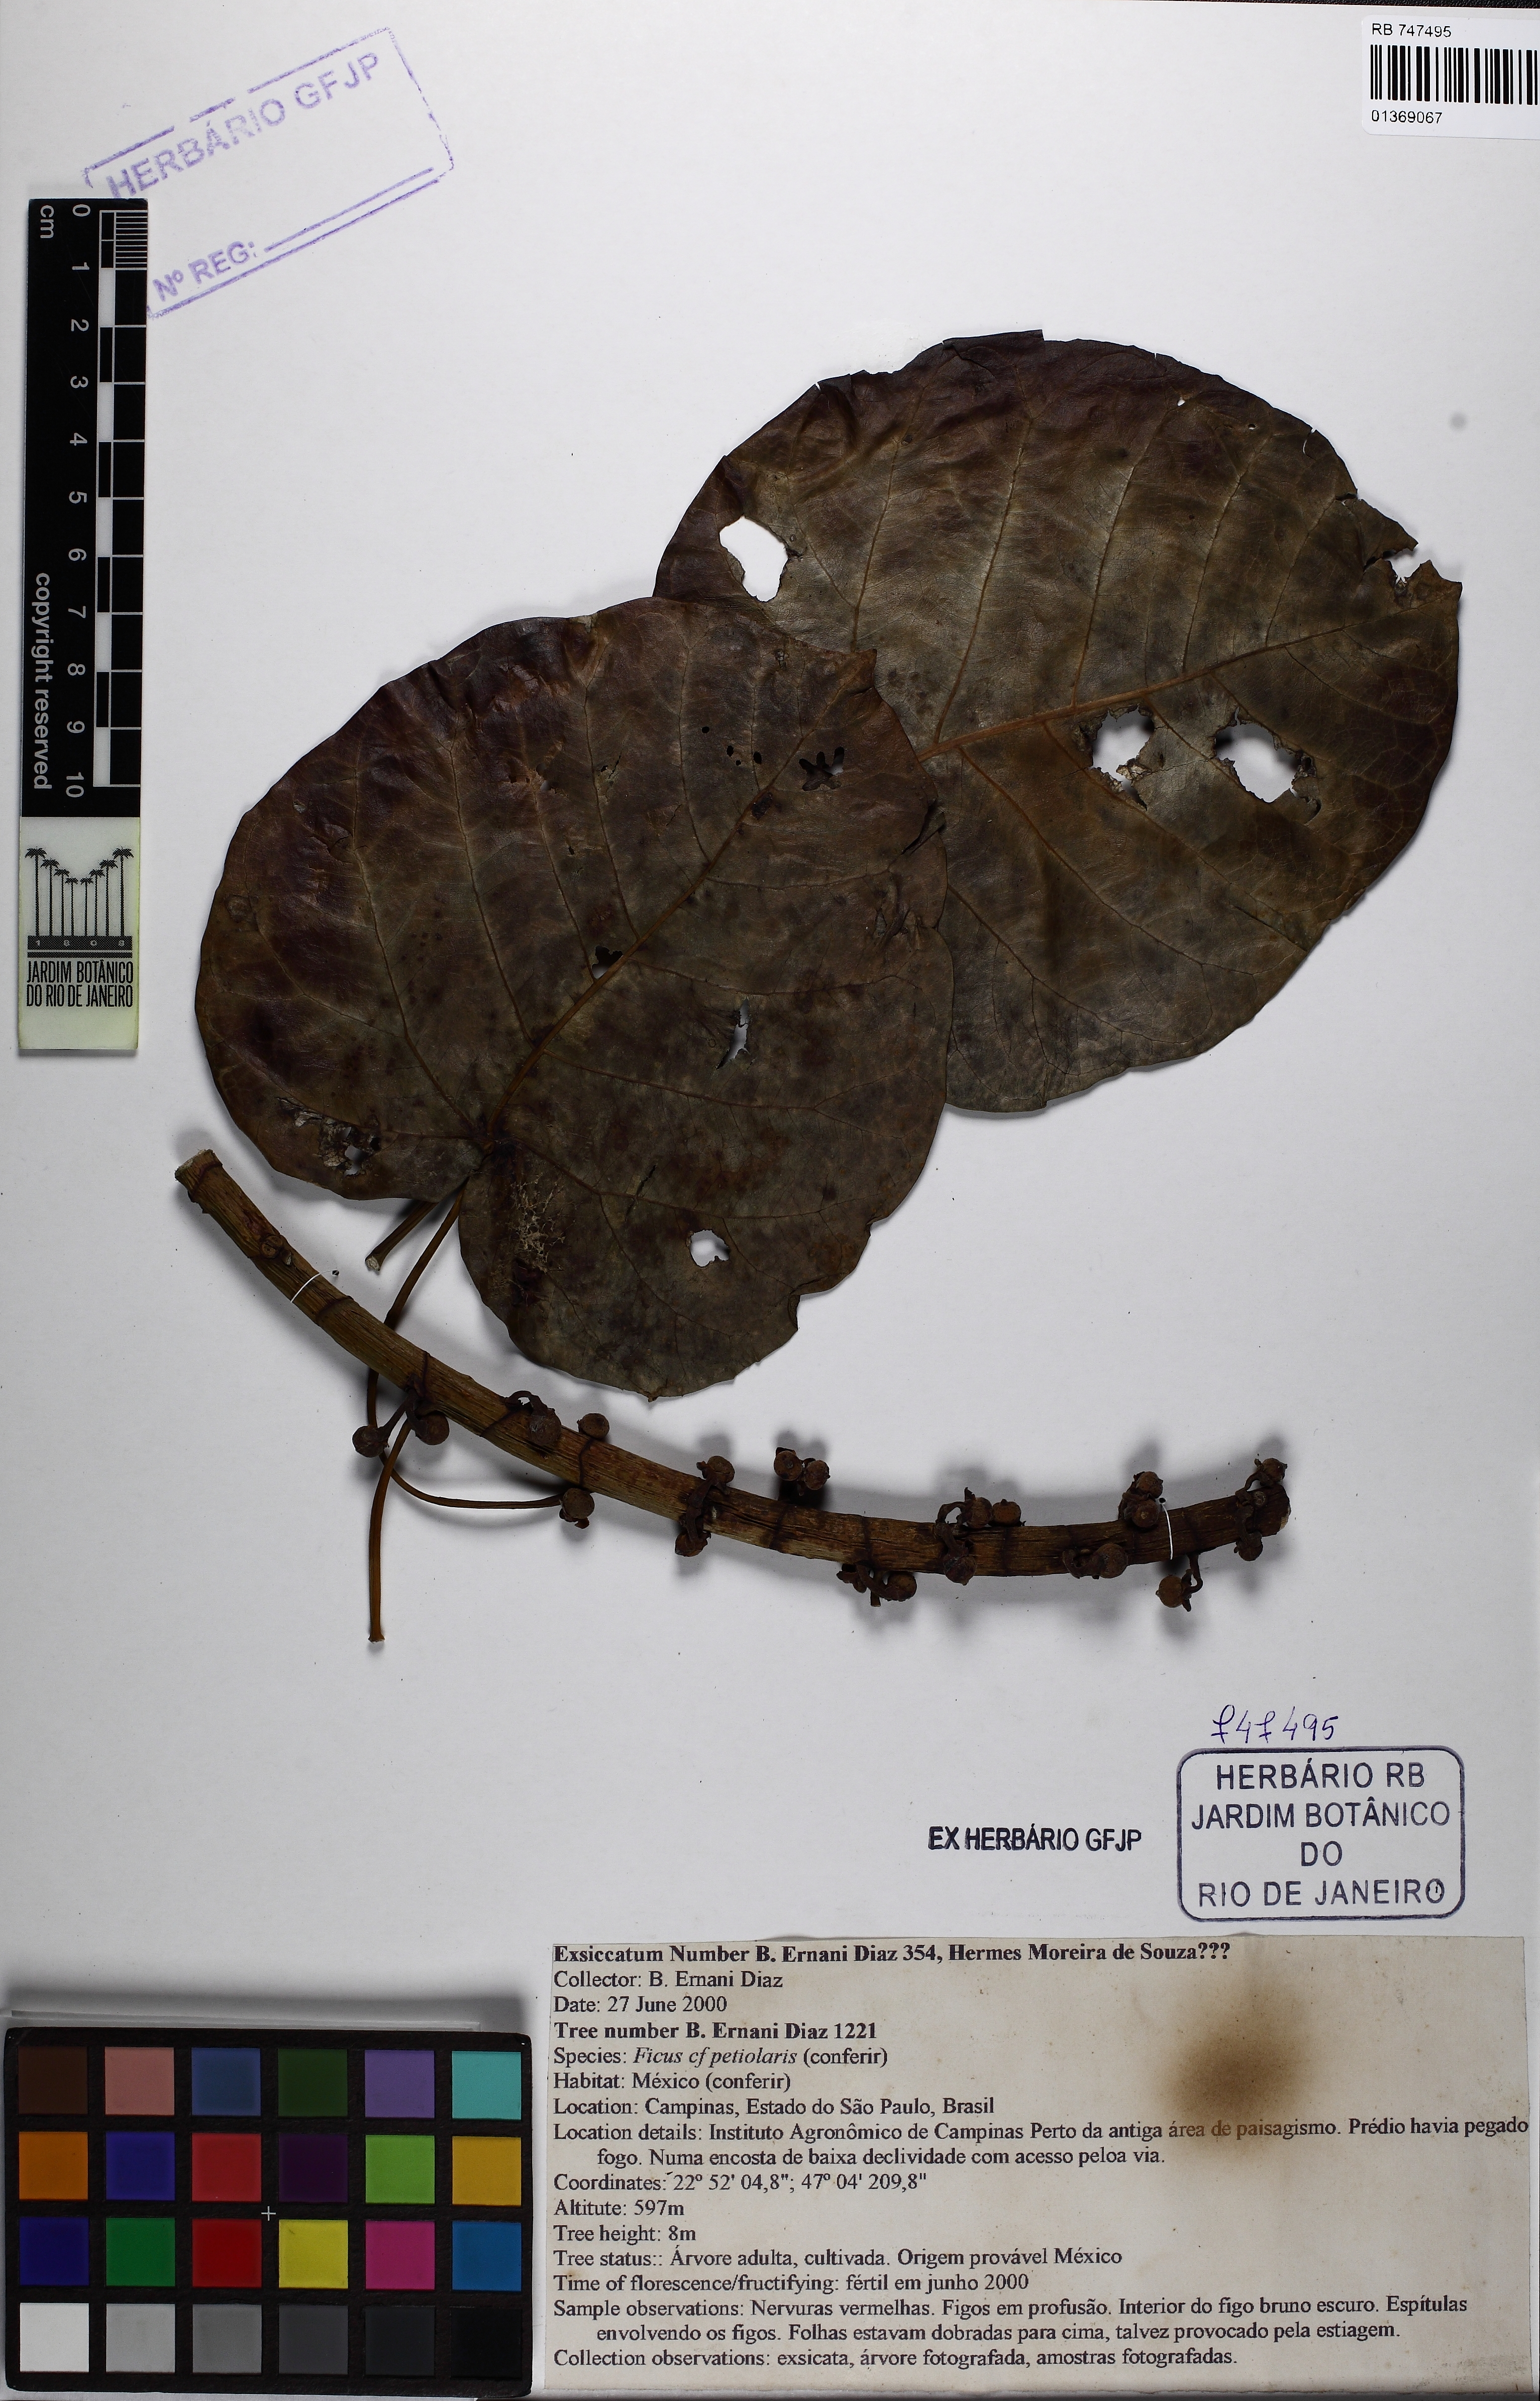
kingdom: Plantae
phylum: Tracheophyta
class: Magnoliopsida
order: Rosales
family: Moraceae
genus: Ficus
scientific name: Ficus petiolaris
